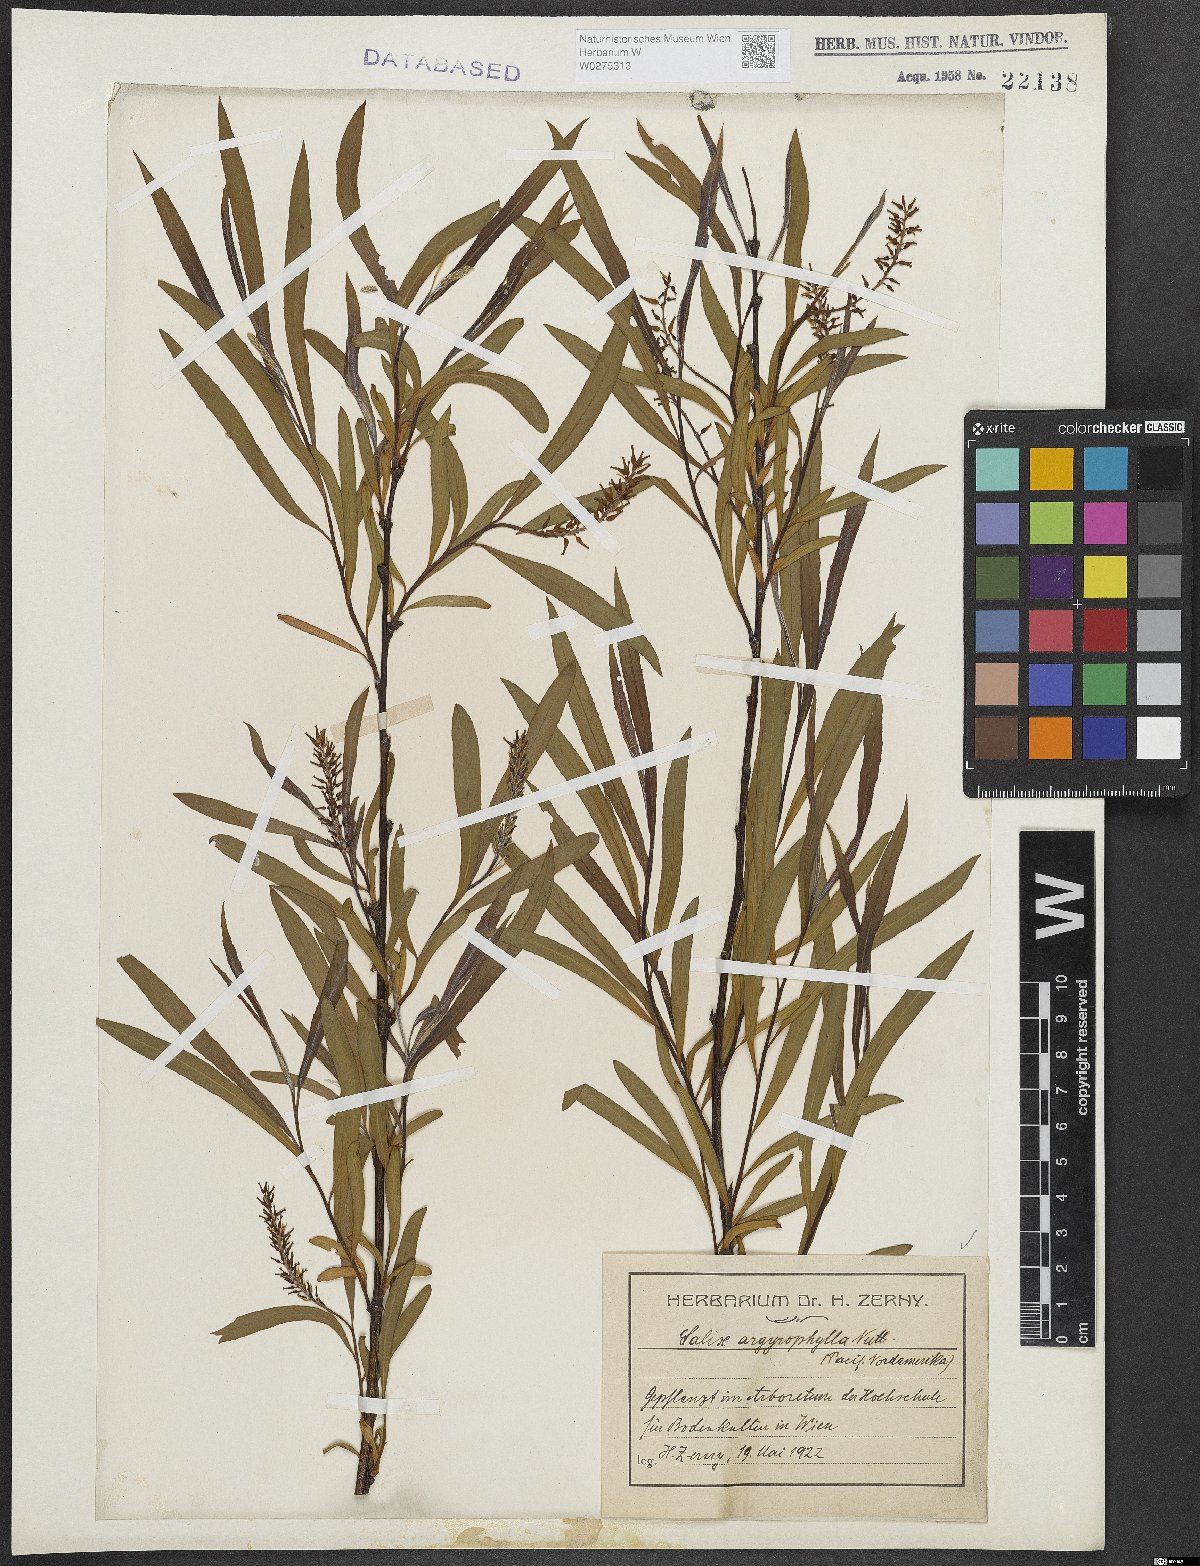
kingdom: Plantae
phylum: Tracheophyta
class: Magnoliopsida
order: Malpighiales
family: Salicaceae
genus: Salix
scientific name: Salix exigua
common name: Coyote willow
